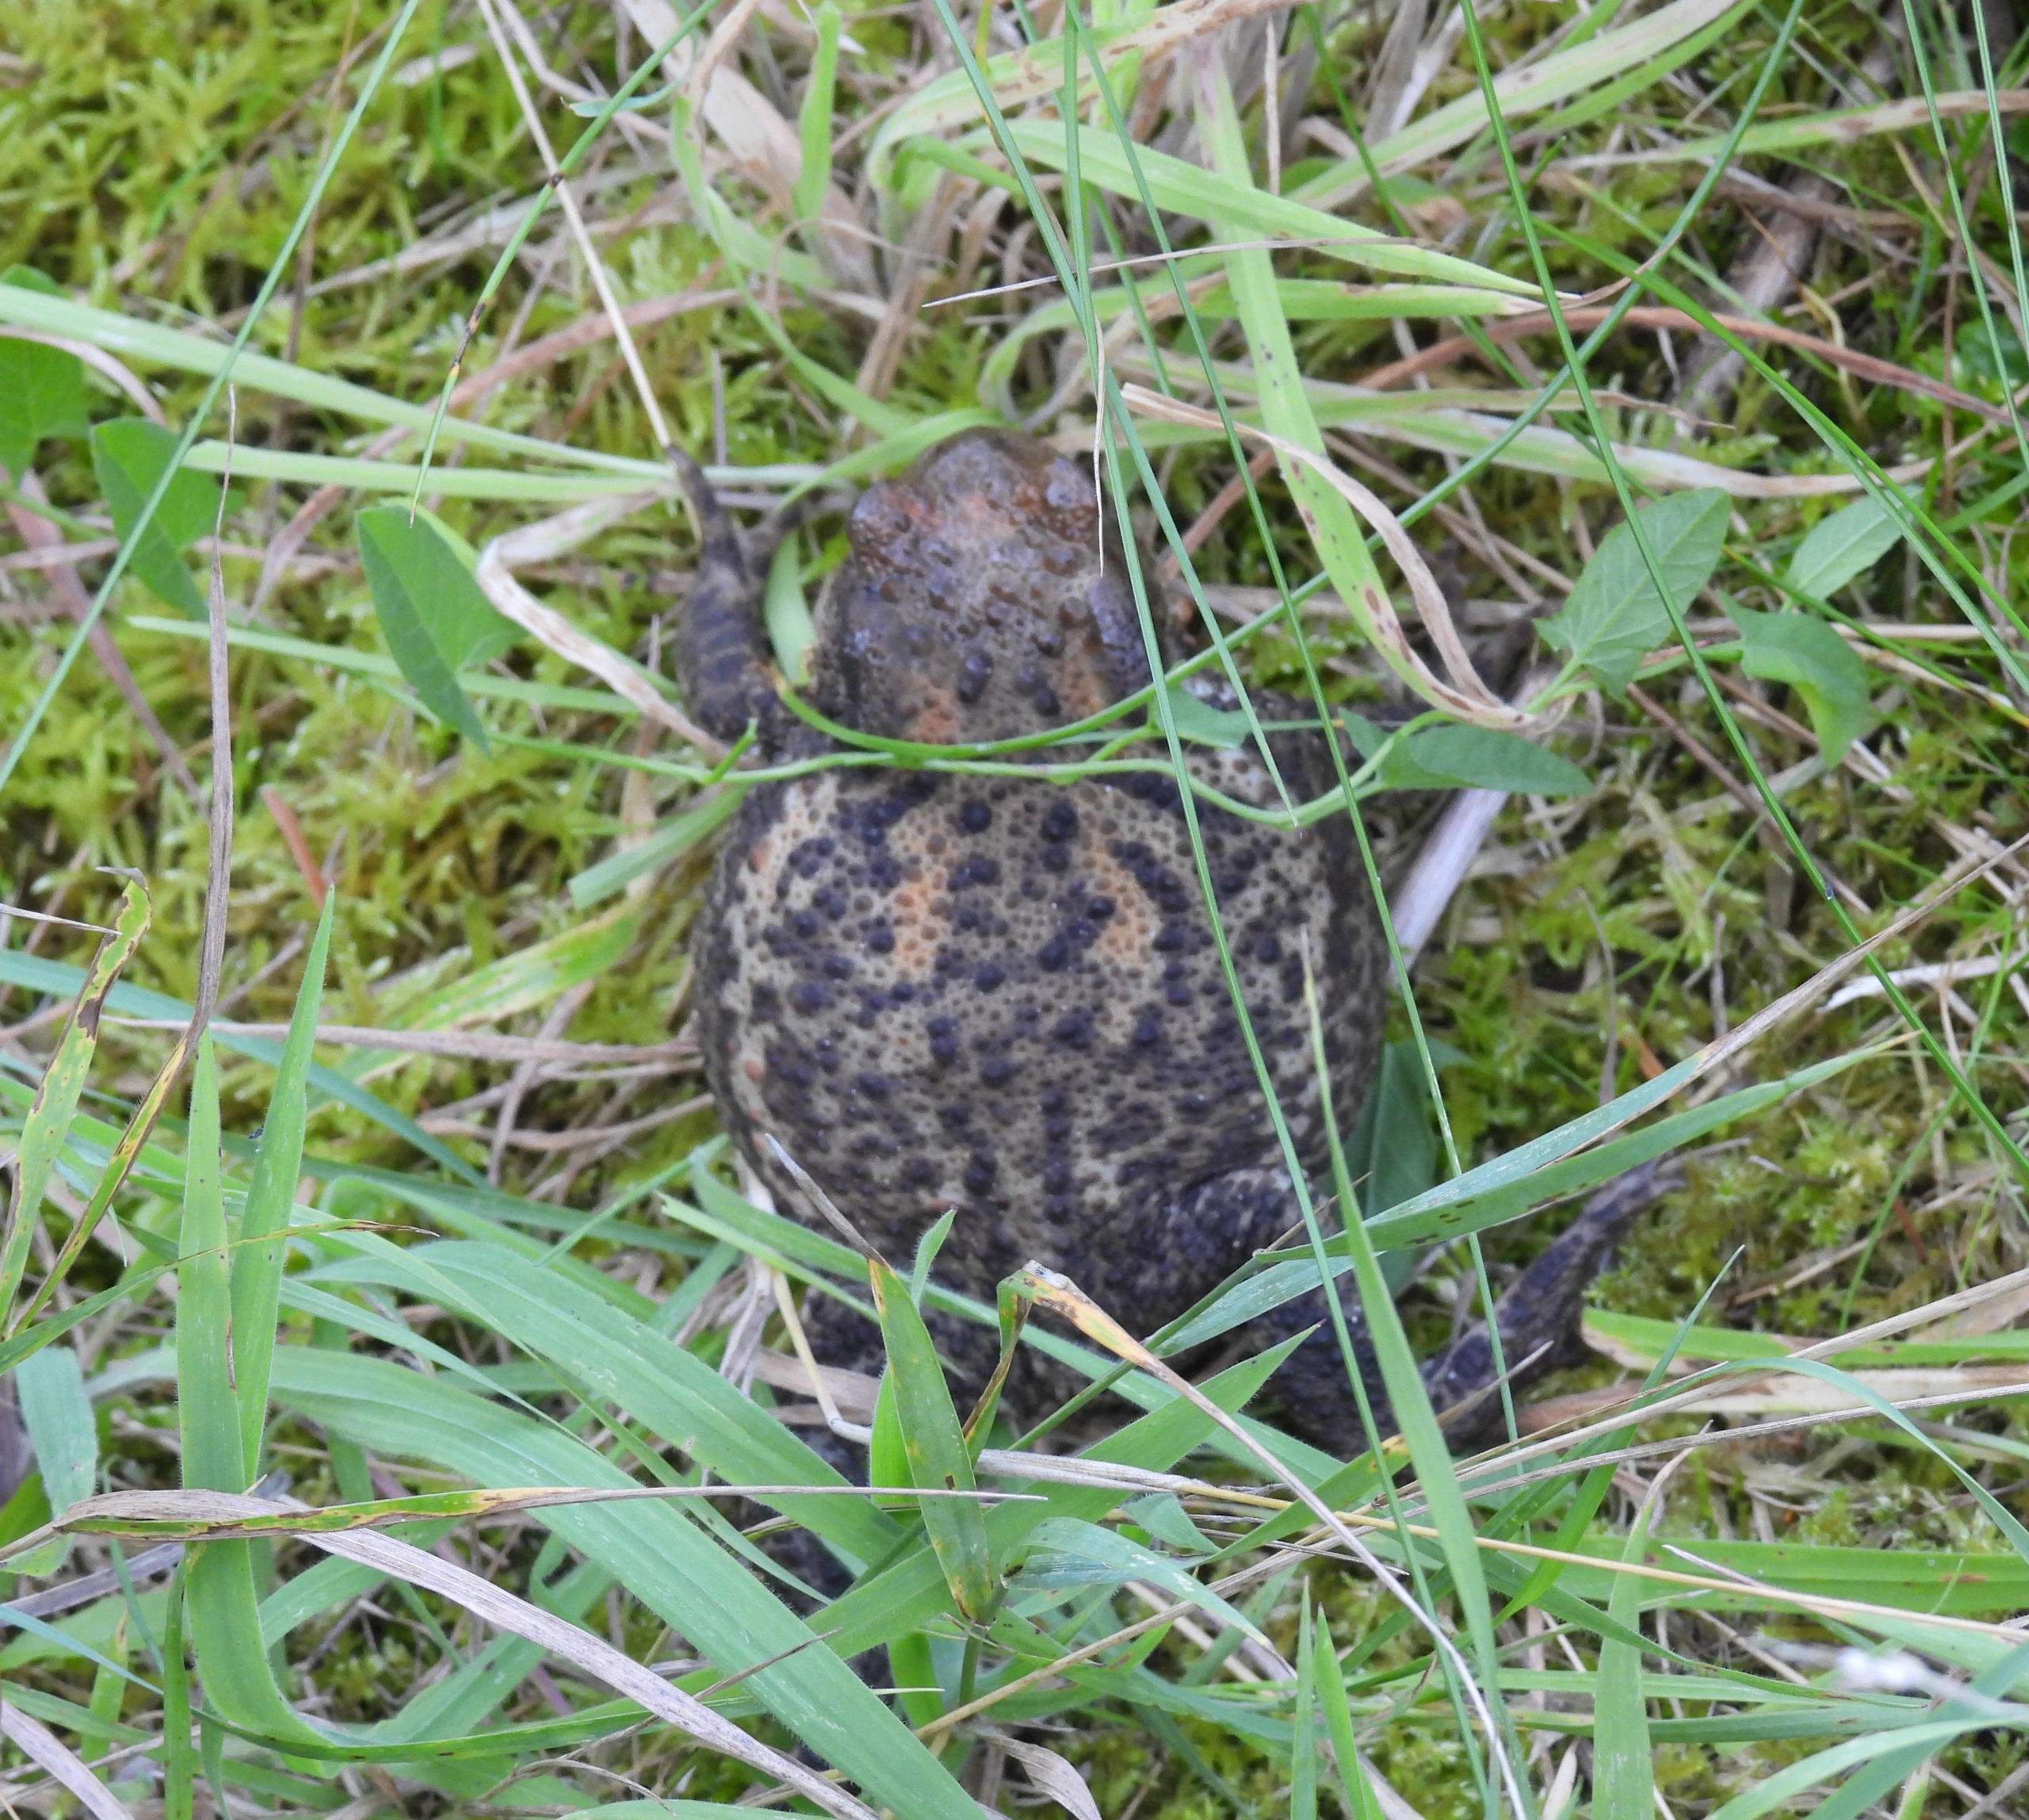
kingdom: Animalia
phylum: Chordata
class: Amphibia
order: Anura
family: Bufonidae
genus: Bufo
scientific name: Bufo bufo
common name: Skrubtudse
